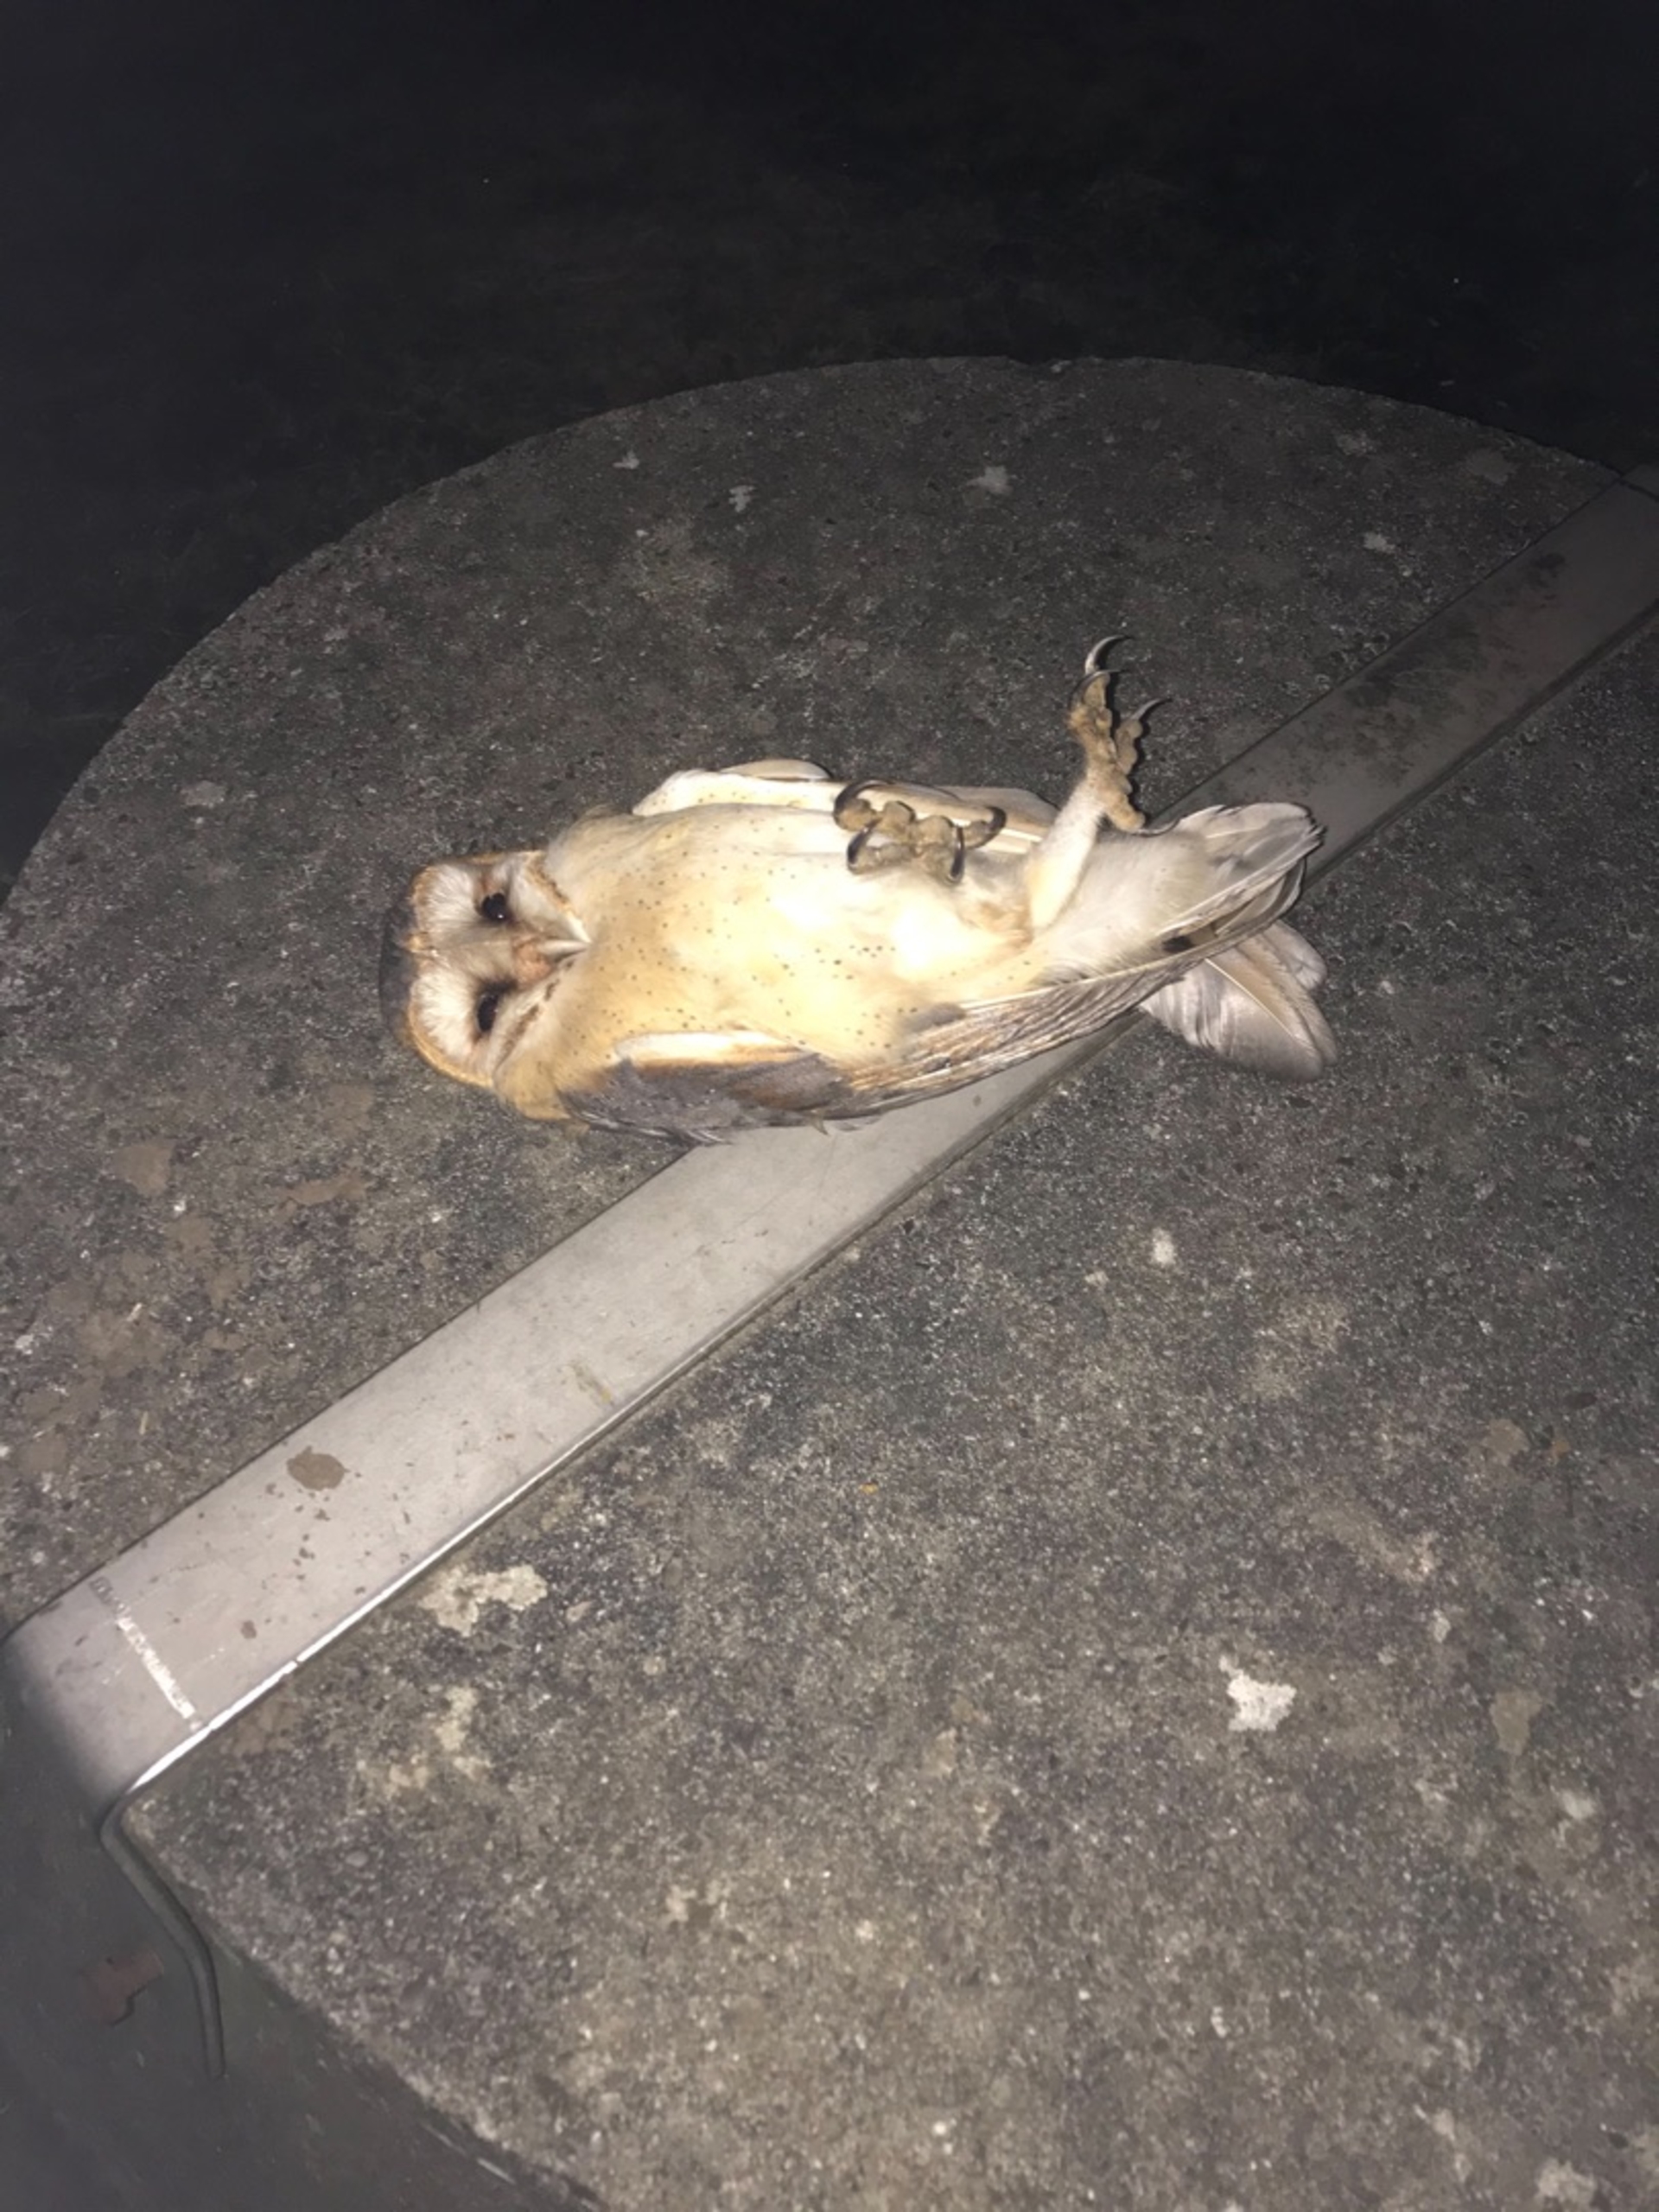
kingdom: Animalia
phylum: Chordata
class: Aves
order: Strigiformes
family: Tytonidae
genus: Tyto
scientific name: Tyto alba
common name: Slørugle
